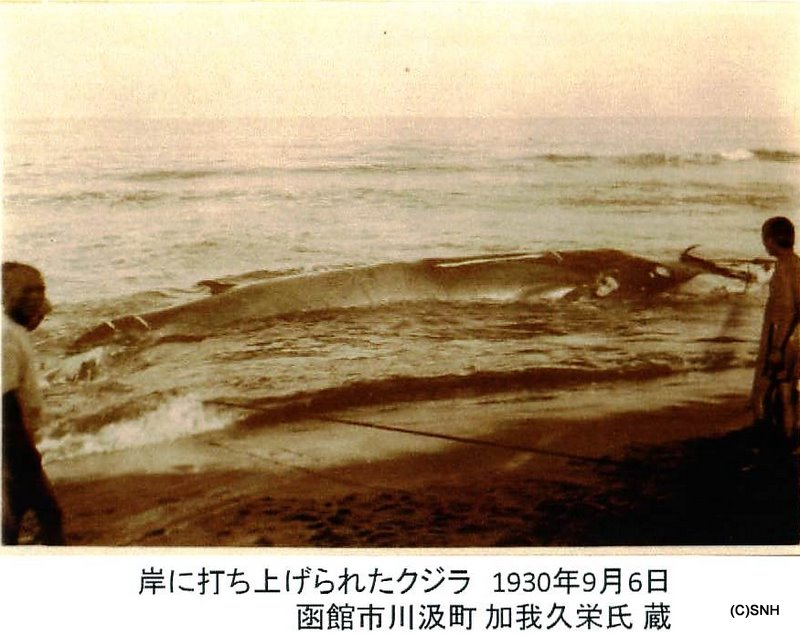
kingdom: Animalia
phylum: Chordata
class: Mammalia
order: Cetacea
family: Balaenopteridae
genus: Balaenoptera
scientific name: Balaenoptera physalus
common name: Fin whale
